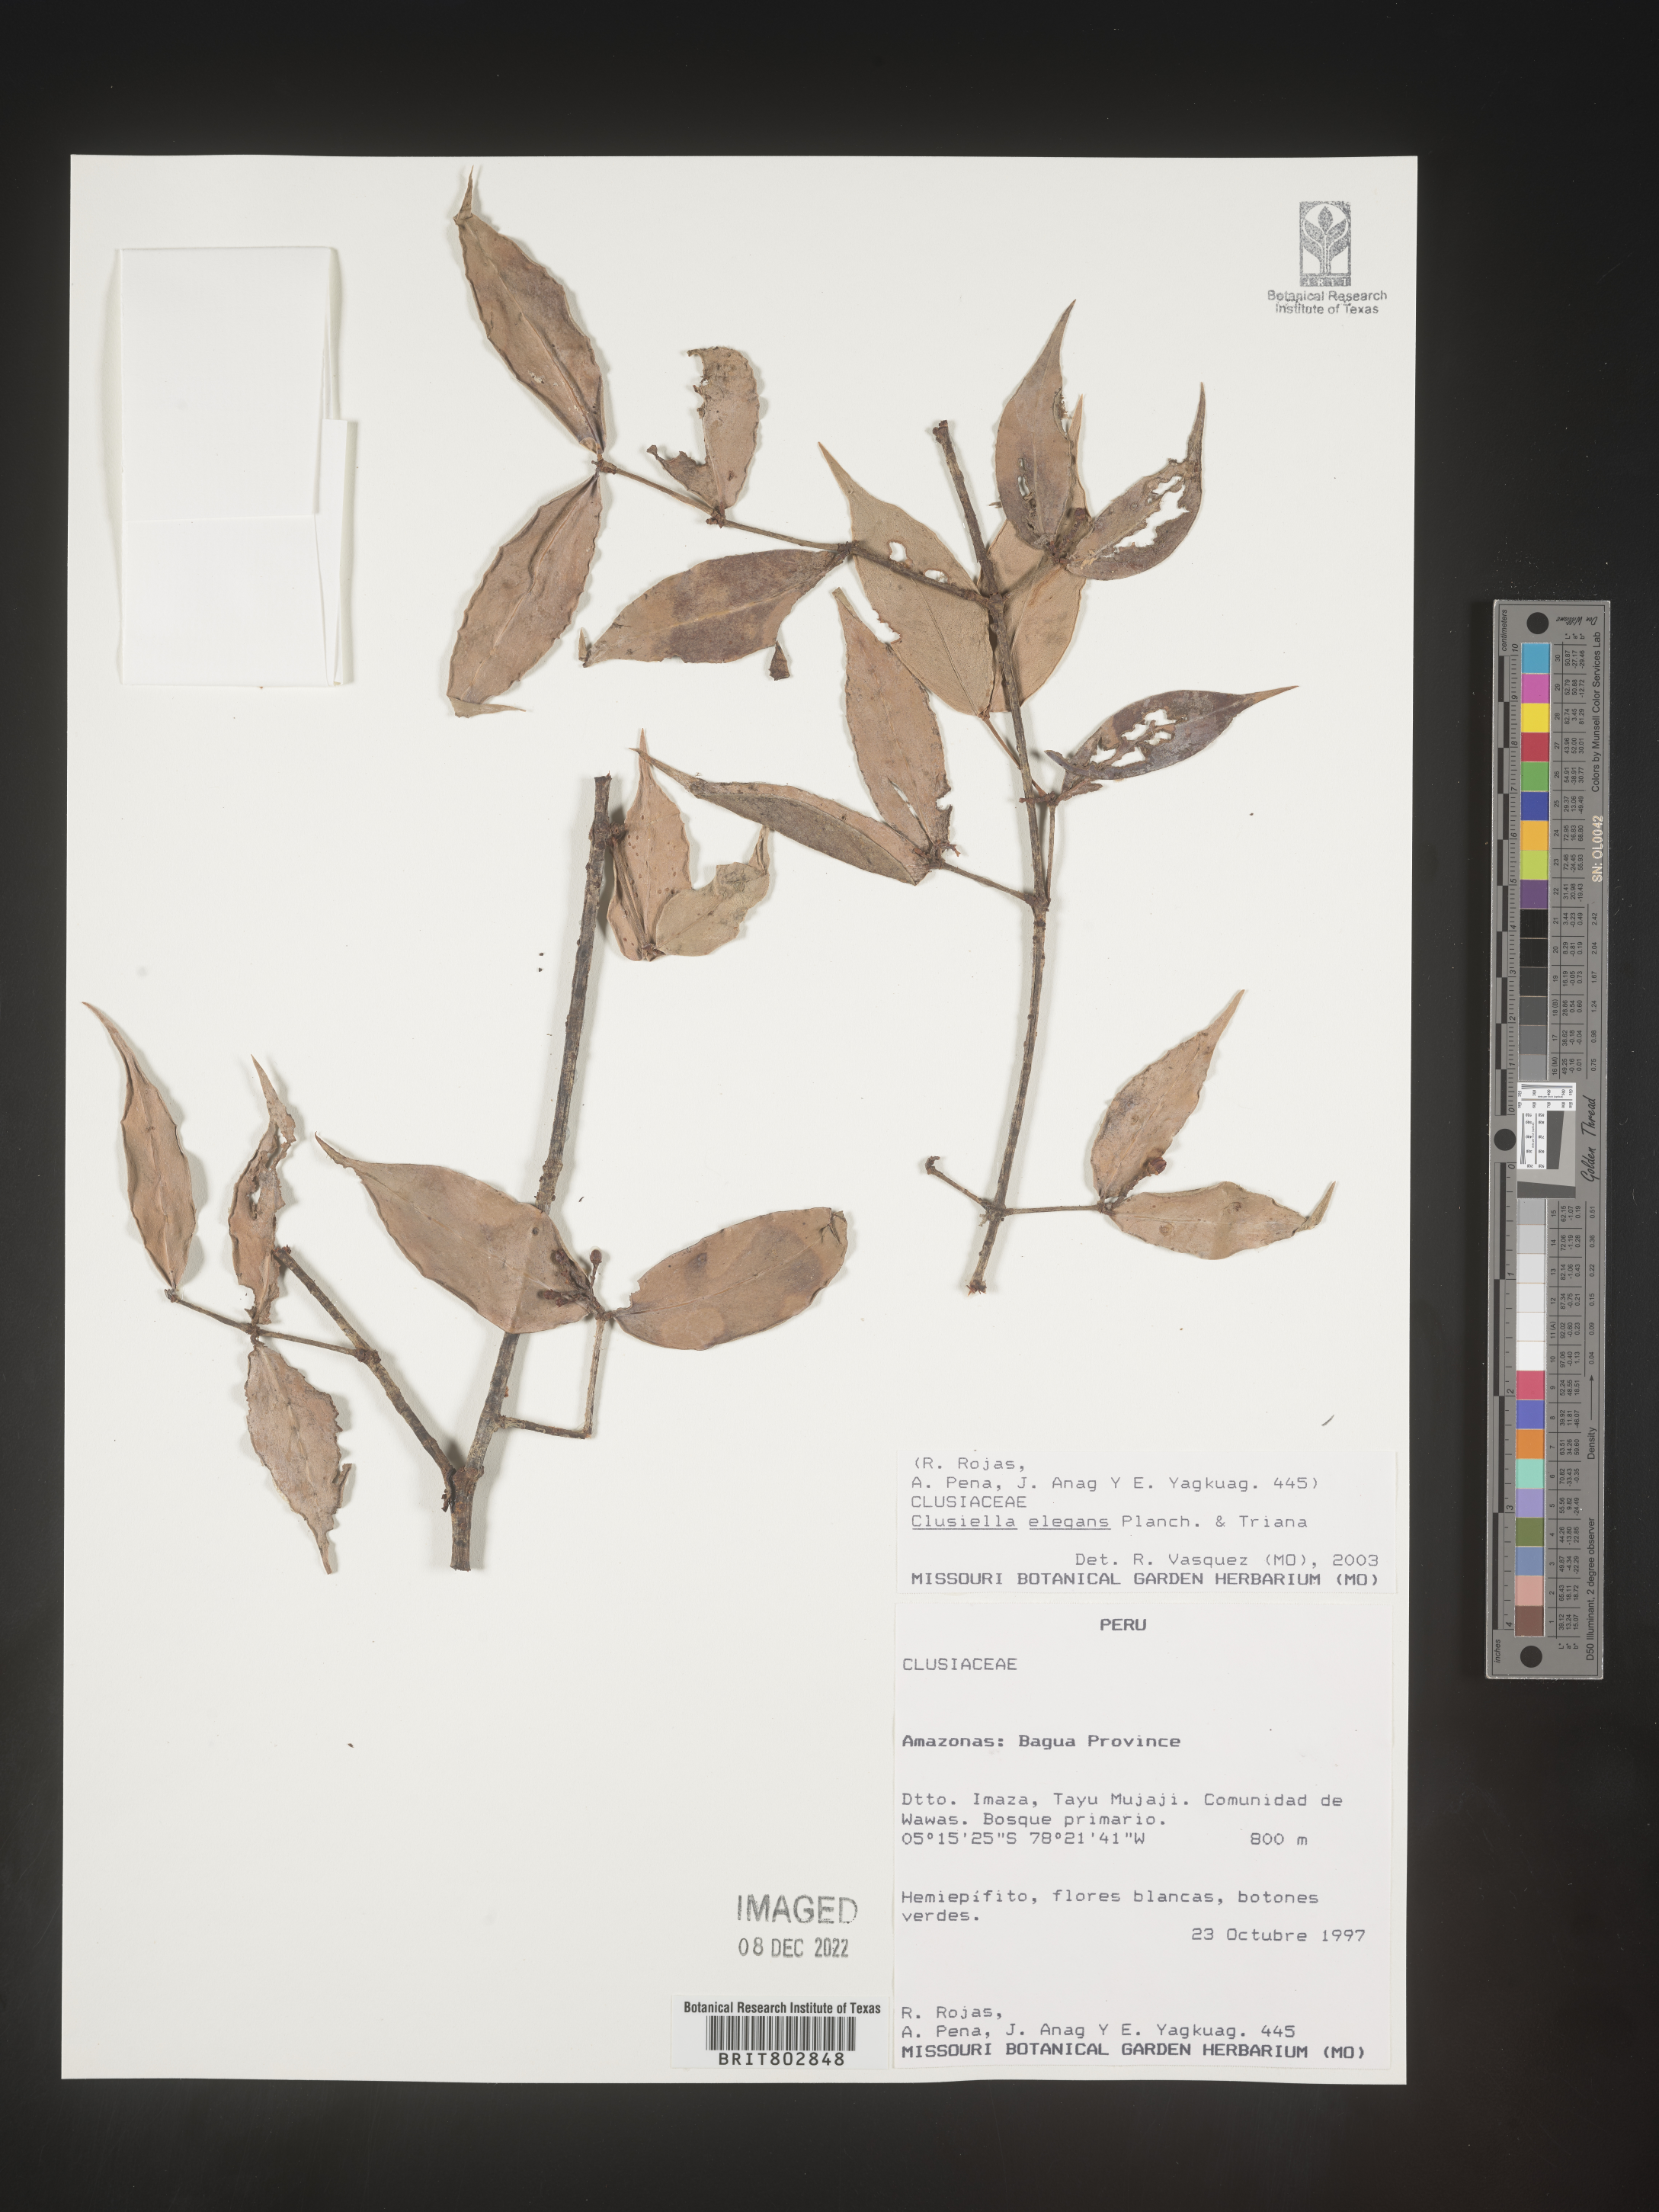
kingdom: Plantae
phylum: Tracheophyta
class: Magnoliopsida
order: Malpighiales
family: Calophyllaceae
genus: Clusiella
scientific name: Clusiella
